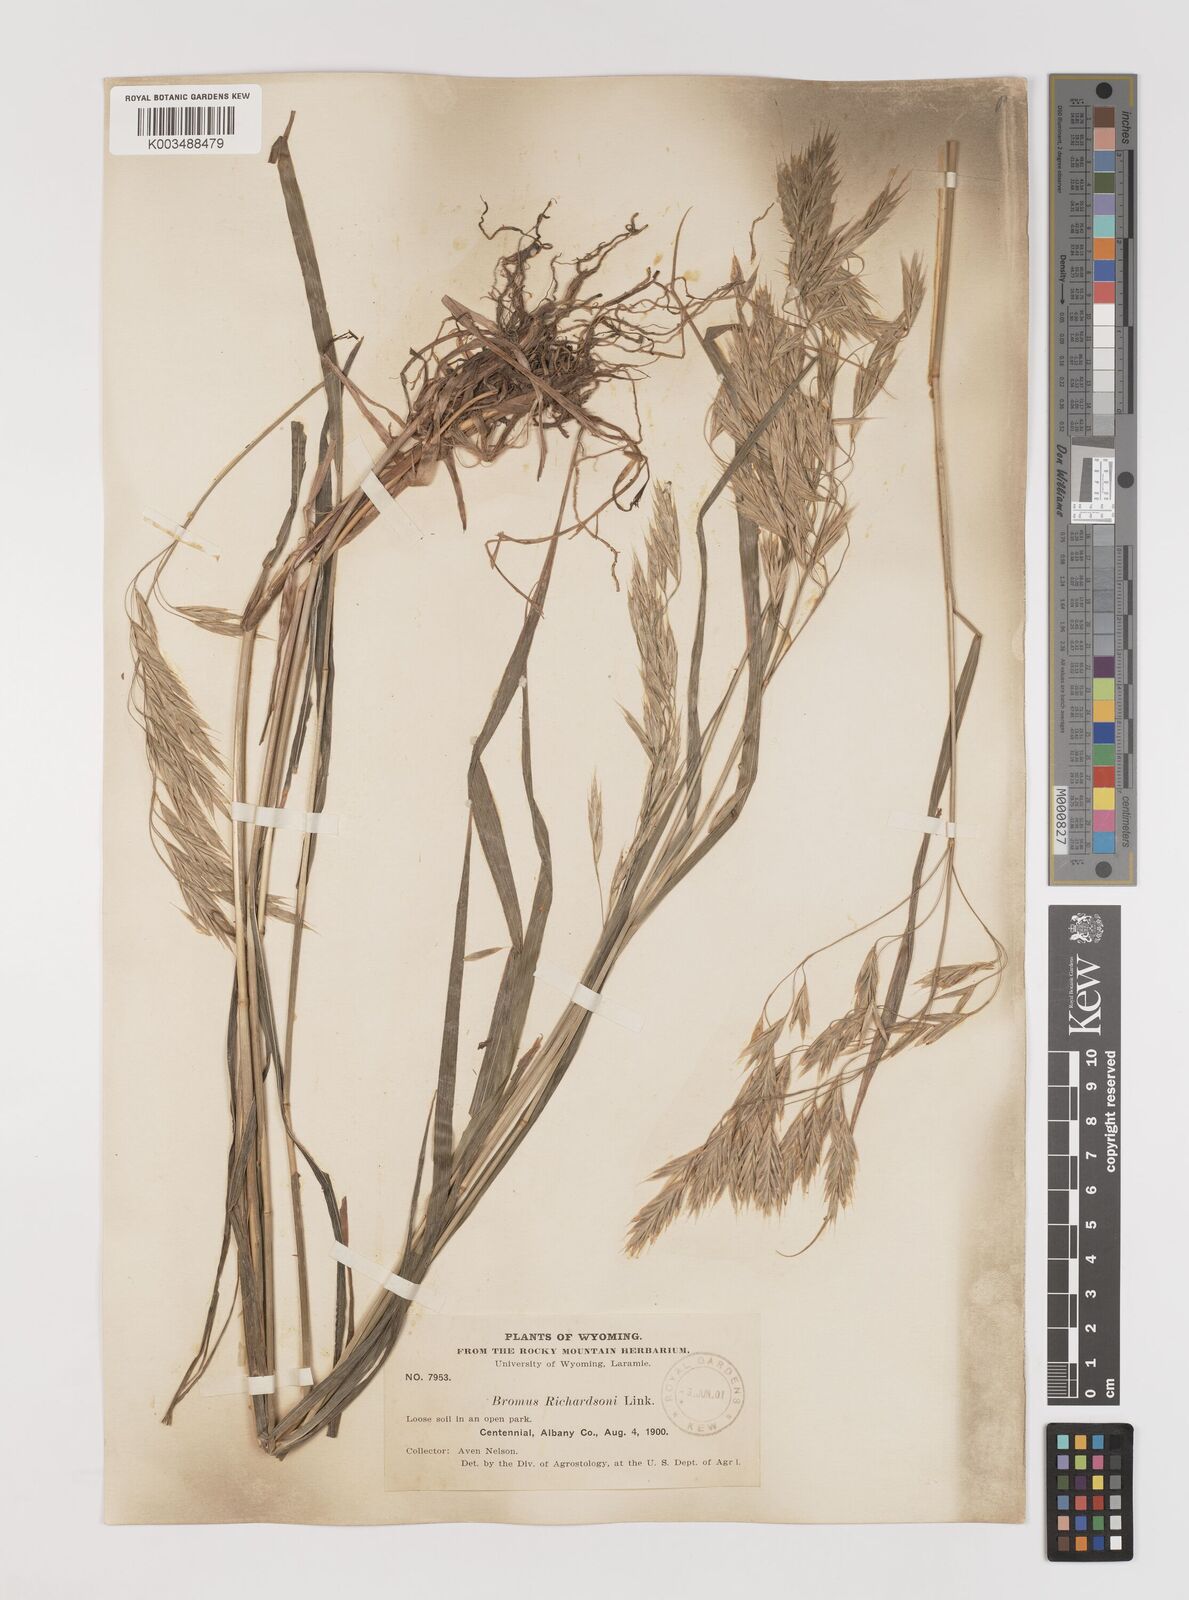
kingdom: Plantae
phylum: Tracheophyta
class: Liliopsida
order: Poales
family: Poaceae
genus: Bromus
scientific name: Bromus richardsonii
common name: Richardson's brome
